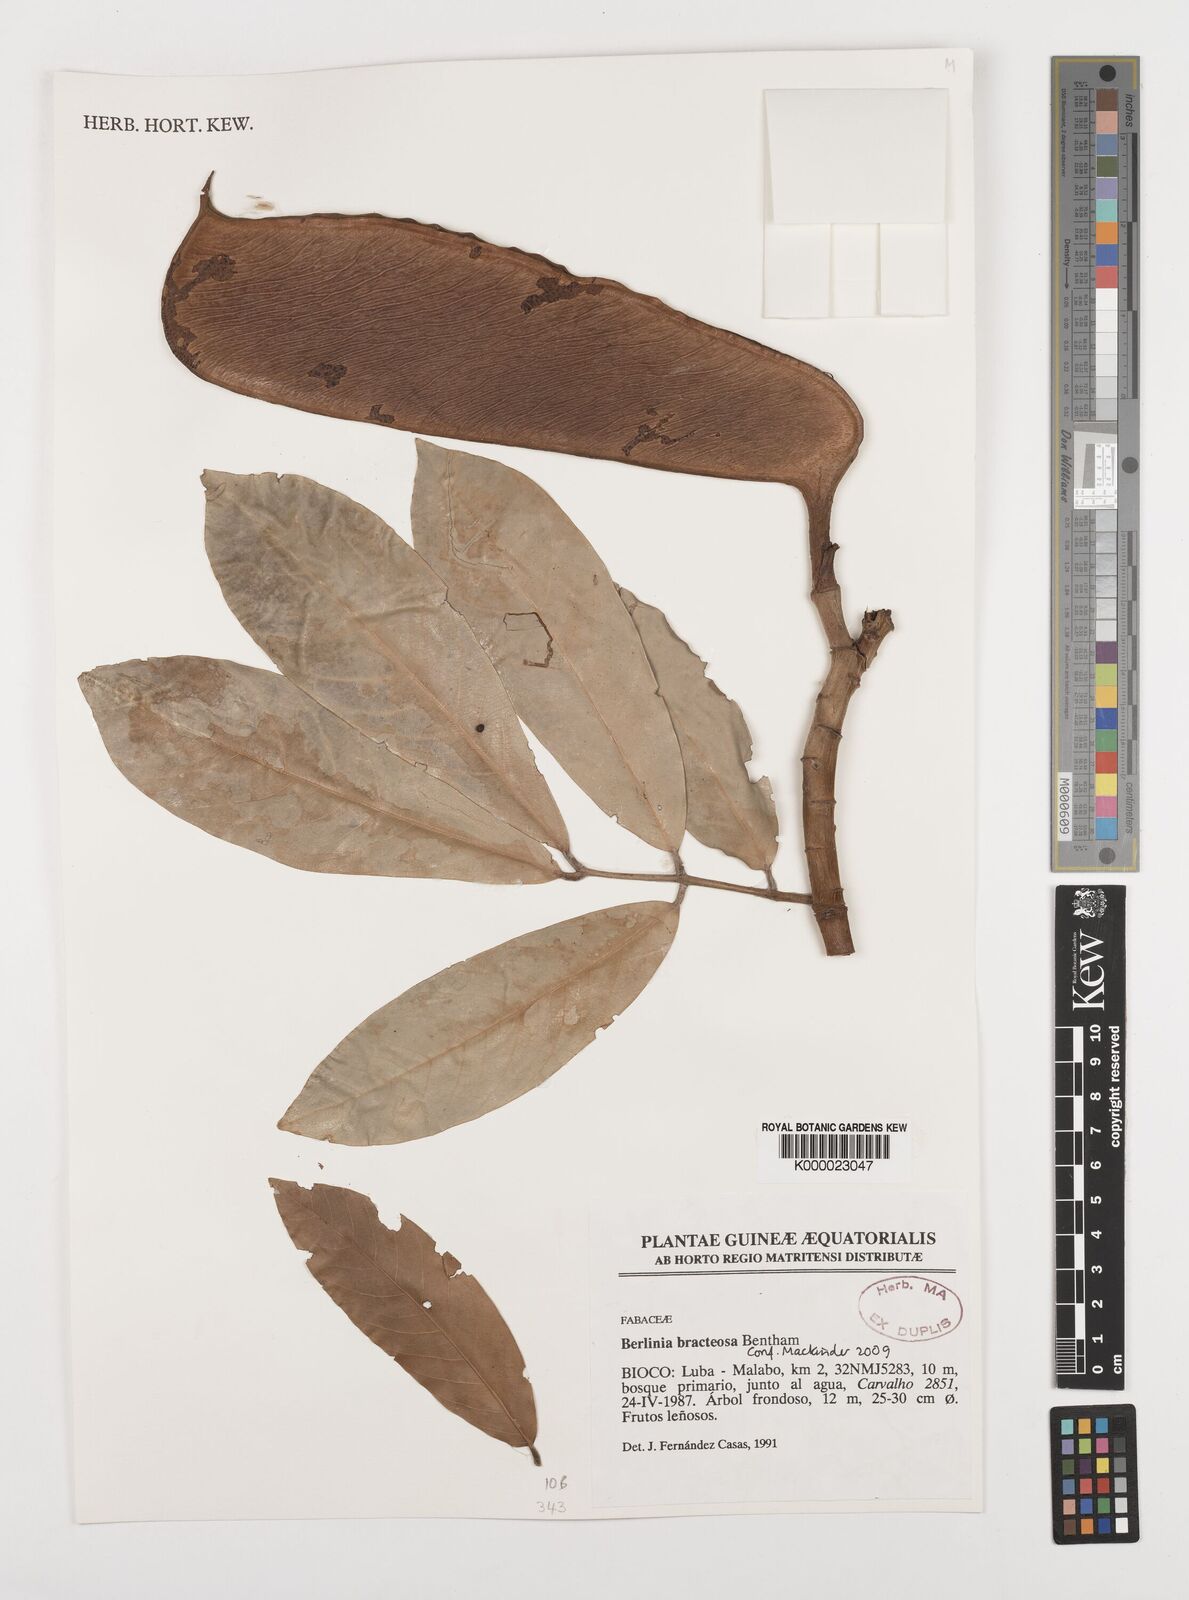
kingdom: Plantae
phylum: Tracheophyta
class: Magnoliopsida
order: Fabales
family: Fabaceae
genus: Berlinia
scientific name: Berlinia bracteosa
